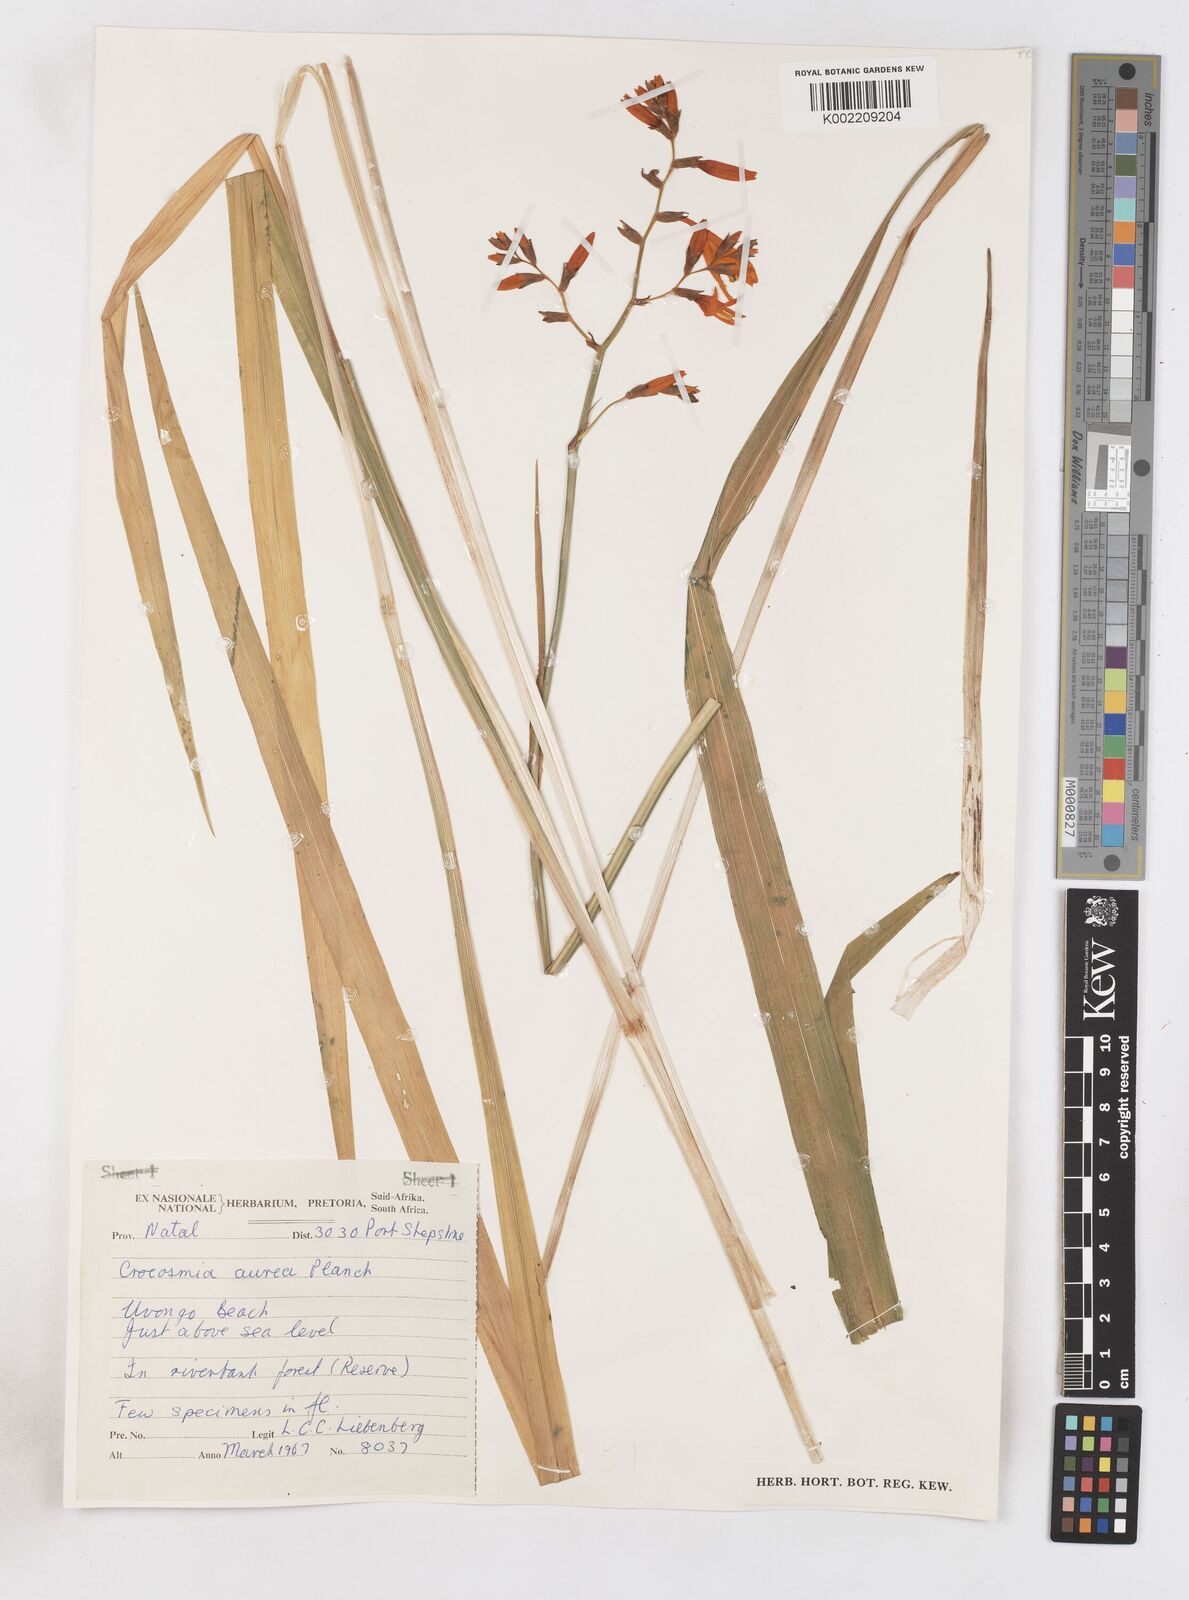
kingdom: Plantae
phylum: Tracheophyta
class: Liliopsida
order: Asparagales
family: Iridaceae
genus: Crocosmia
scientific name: Crocosmia aurea
